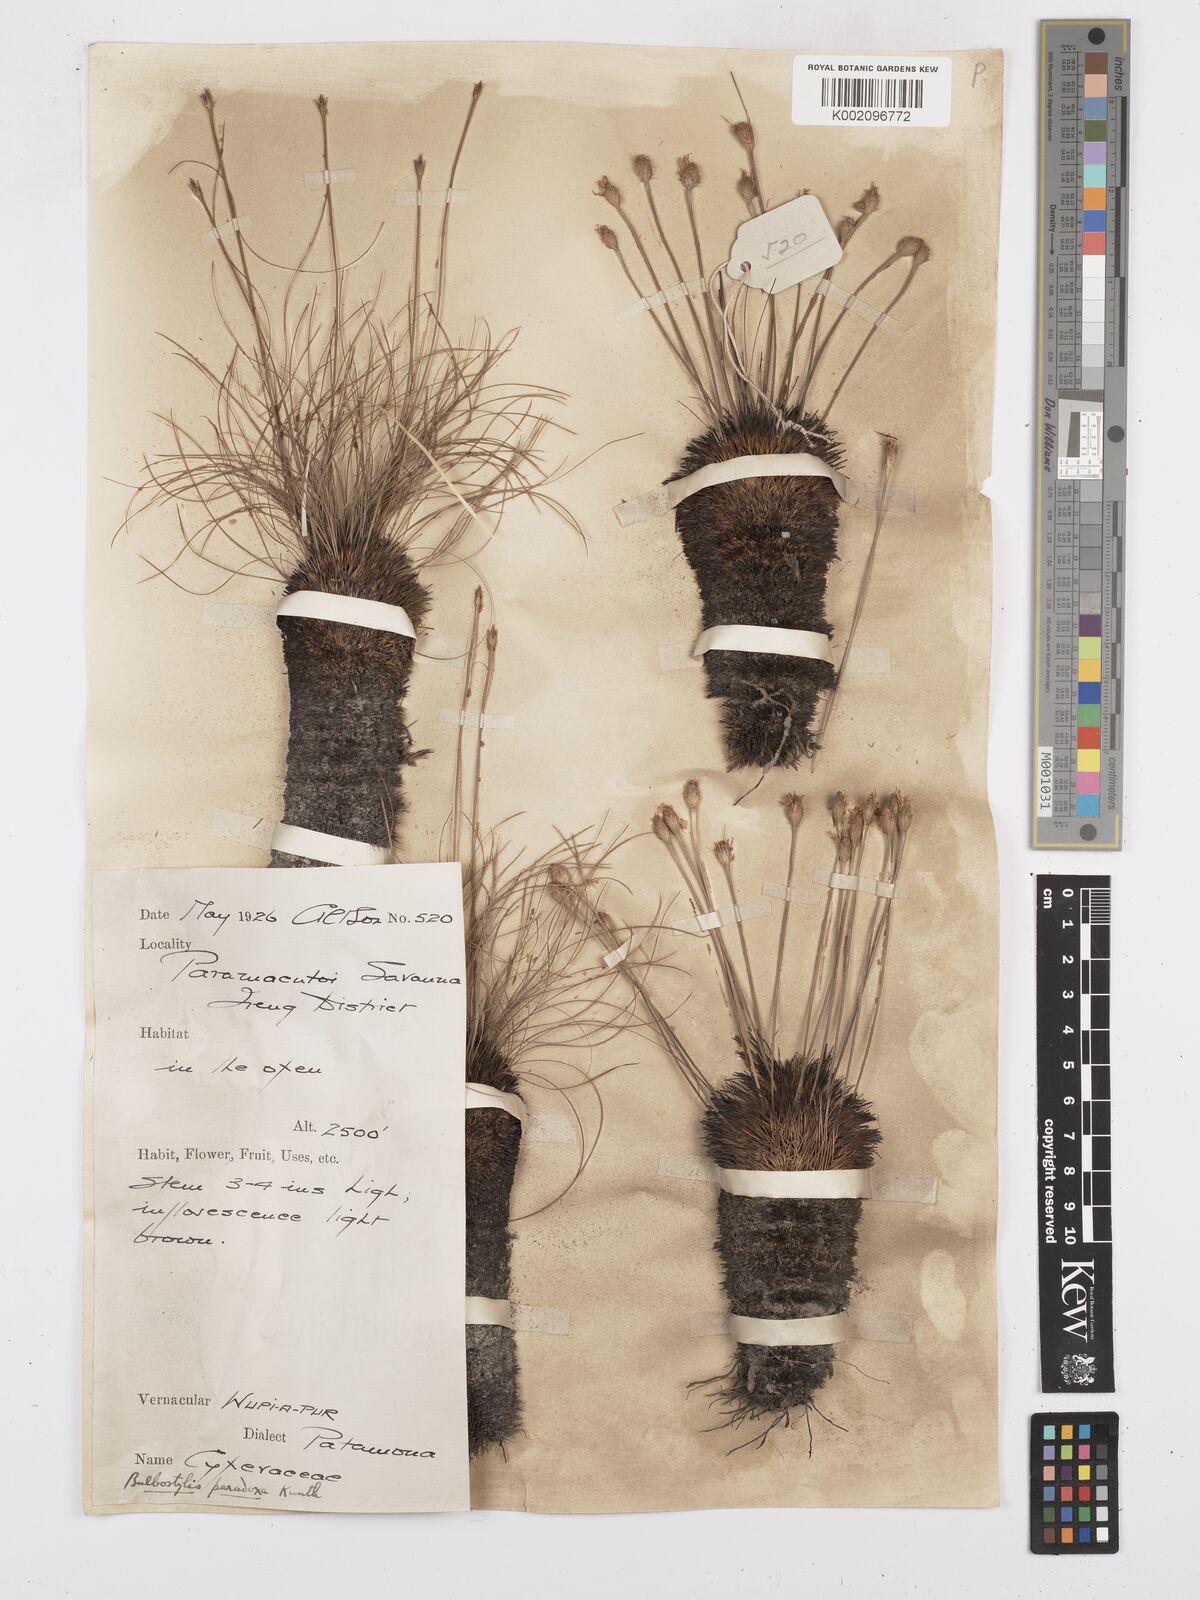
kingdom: Plantae
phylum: Tracheophyta
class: Liliopsida
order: Poales
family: Cyperaceae
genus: Bulbostylis
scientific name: Bulbostylis paradoxa
